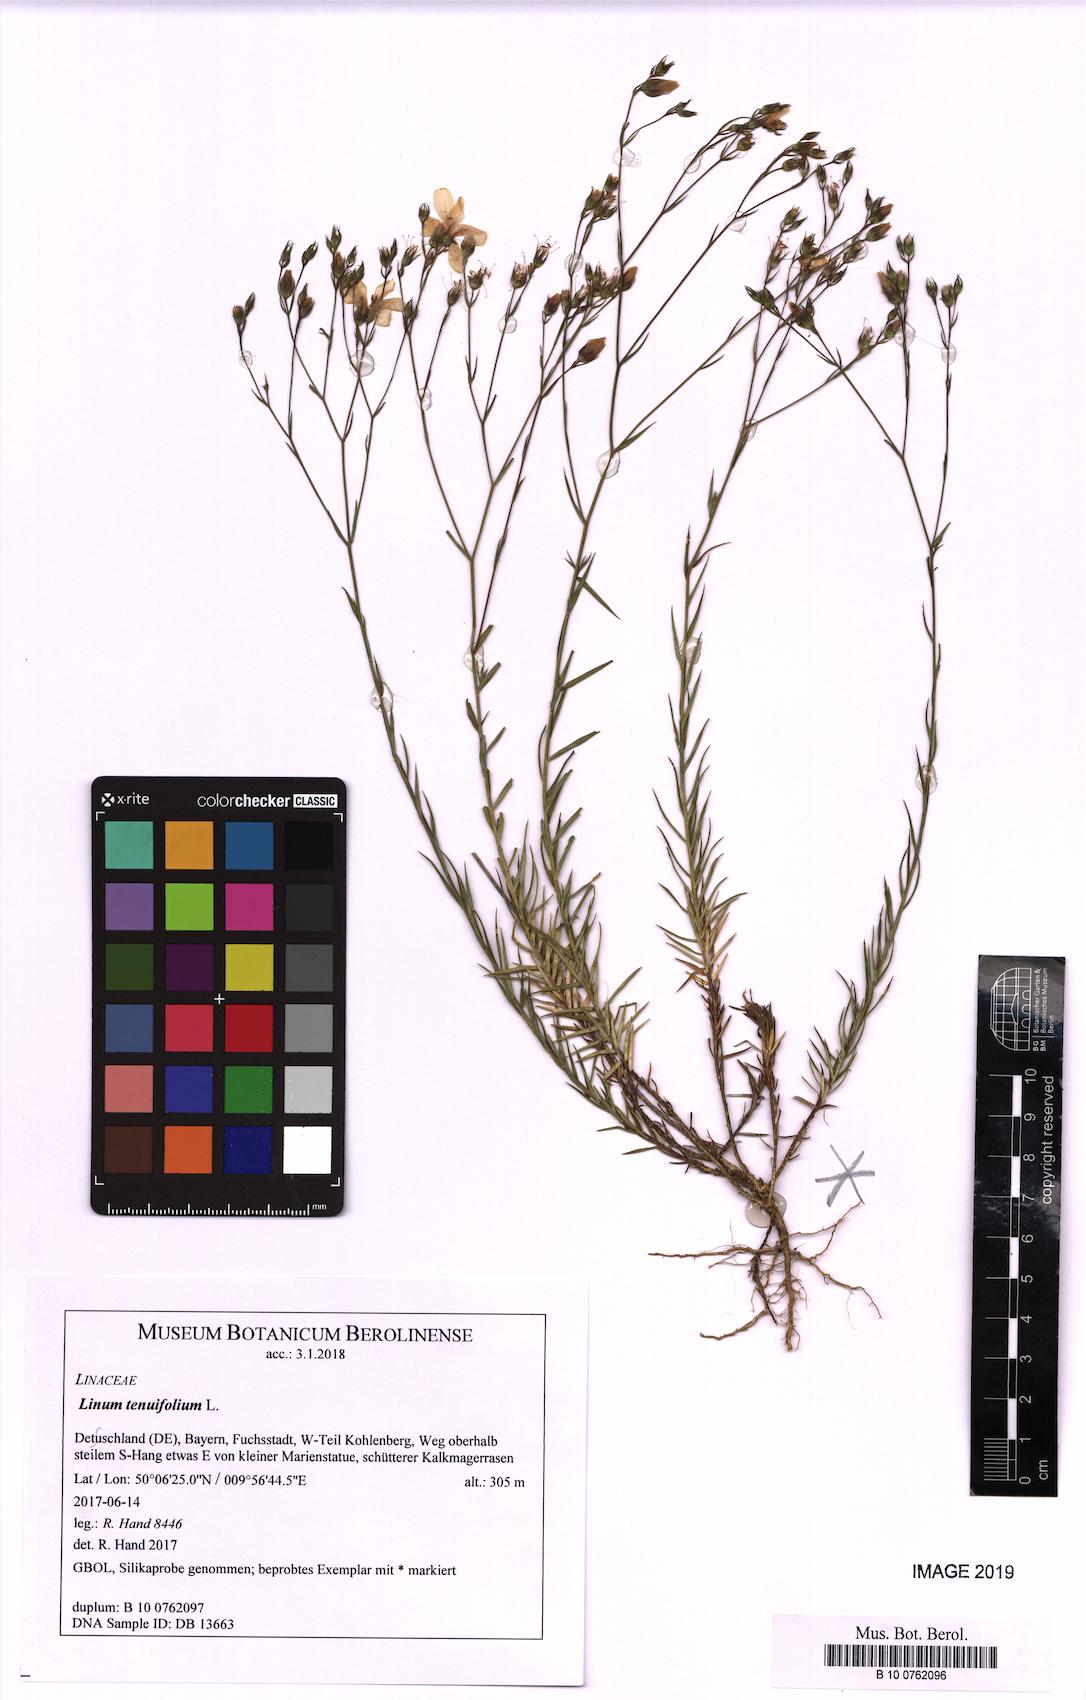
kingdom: Plantae
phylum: Tracheophyta
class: Magnoliopsida
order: Malpighiales
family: Linaceae
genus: Linum
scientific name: Linum tenuifolium
